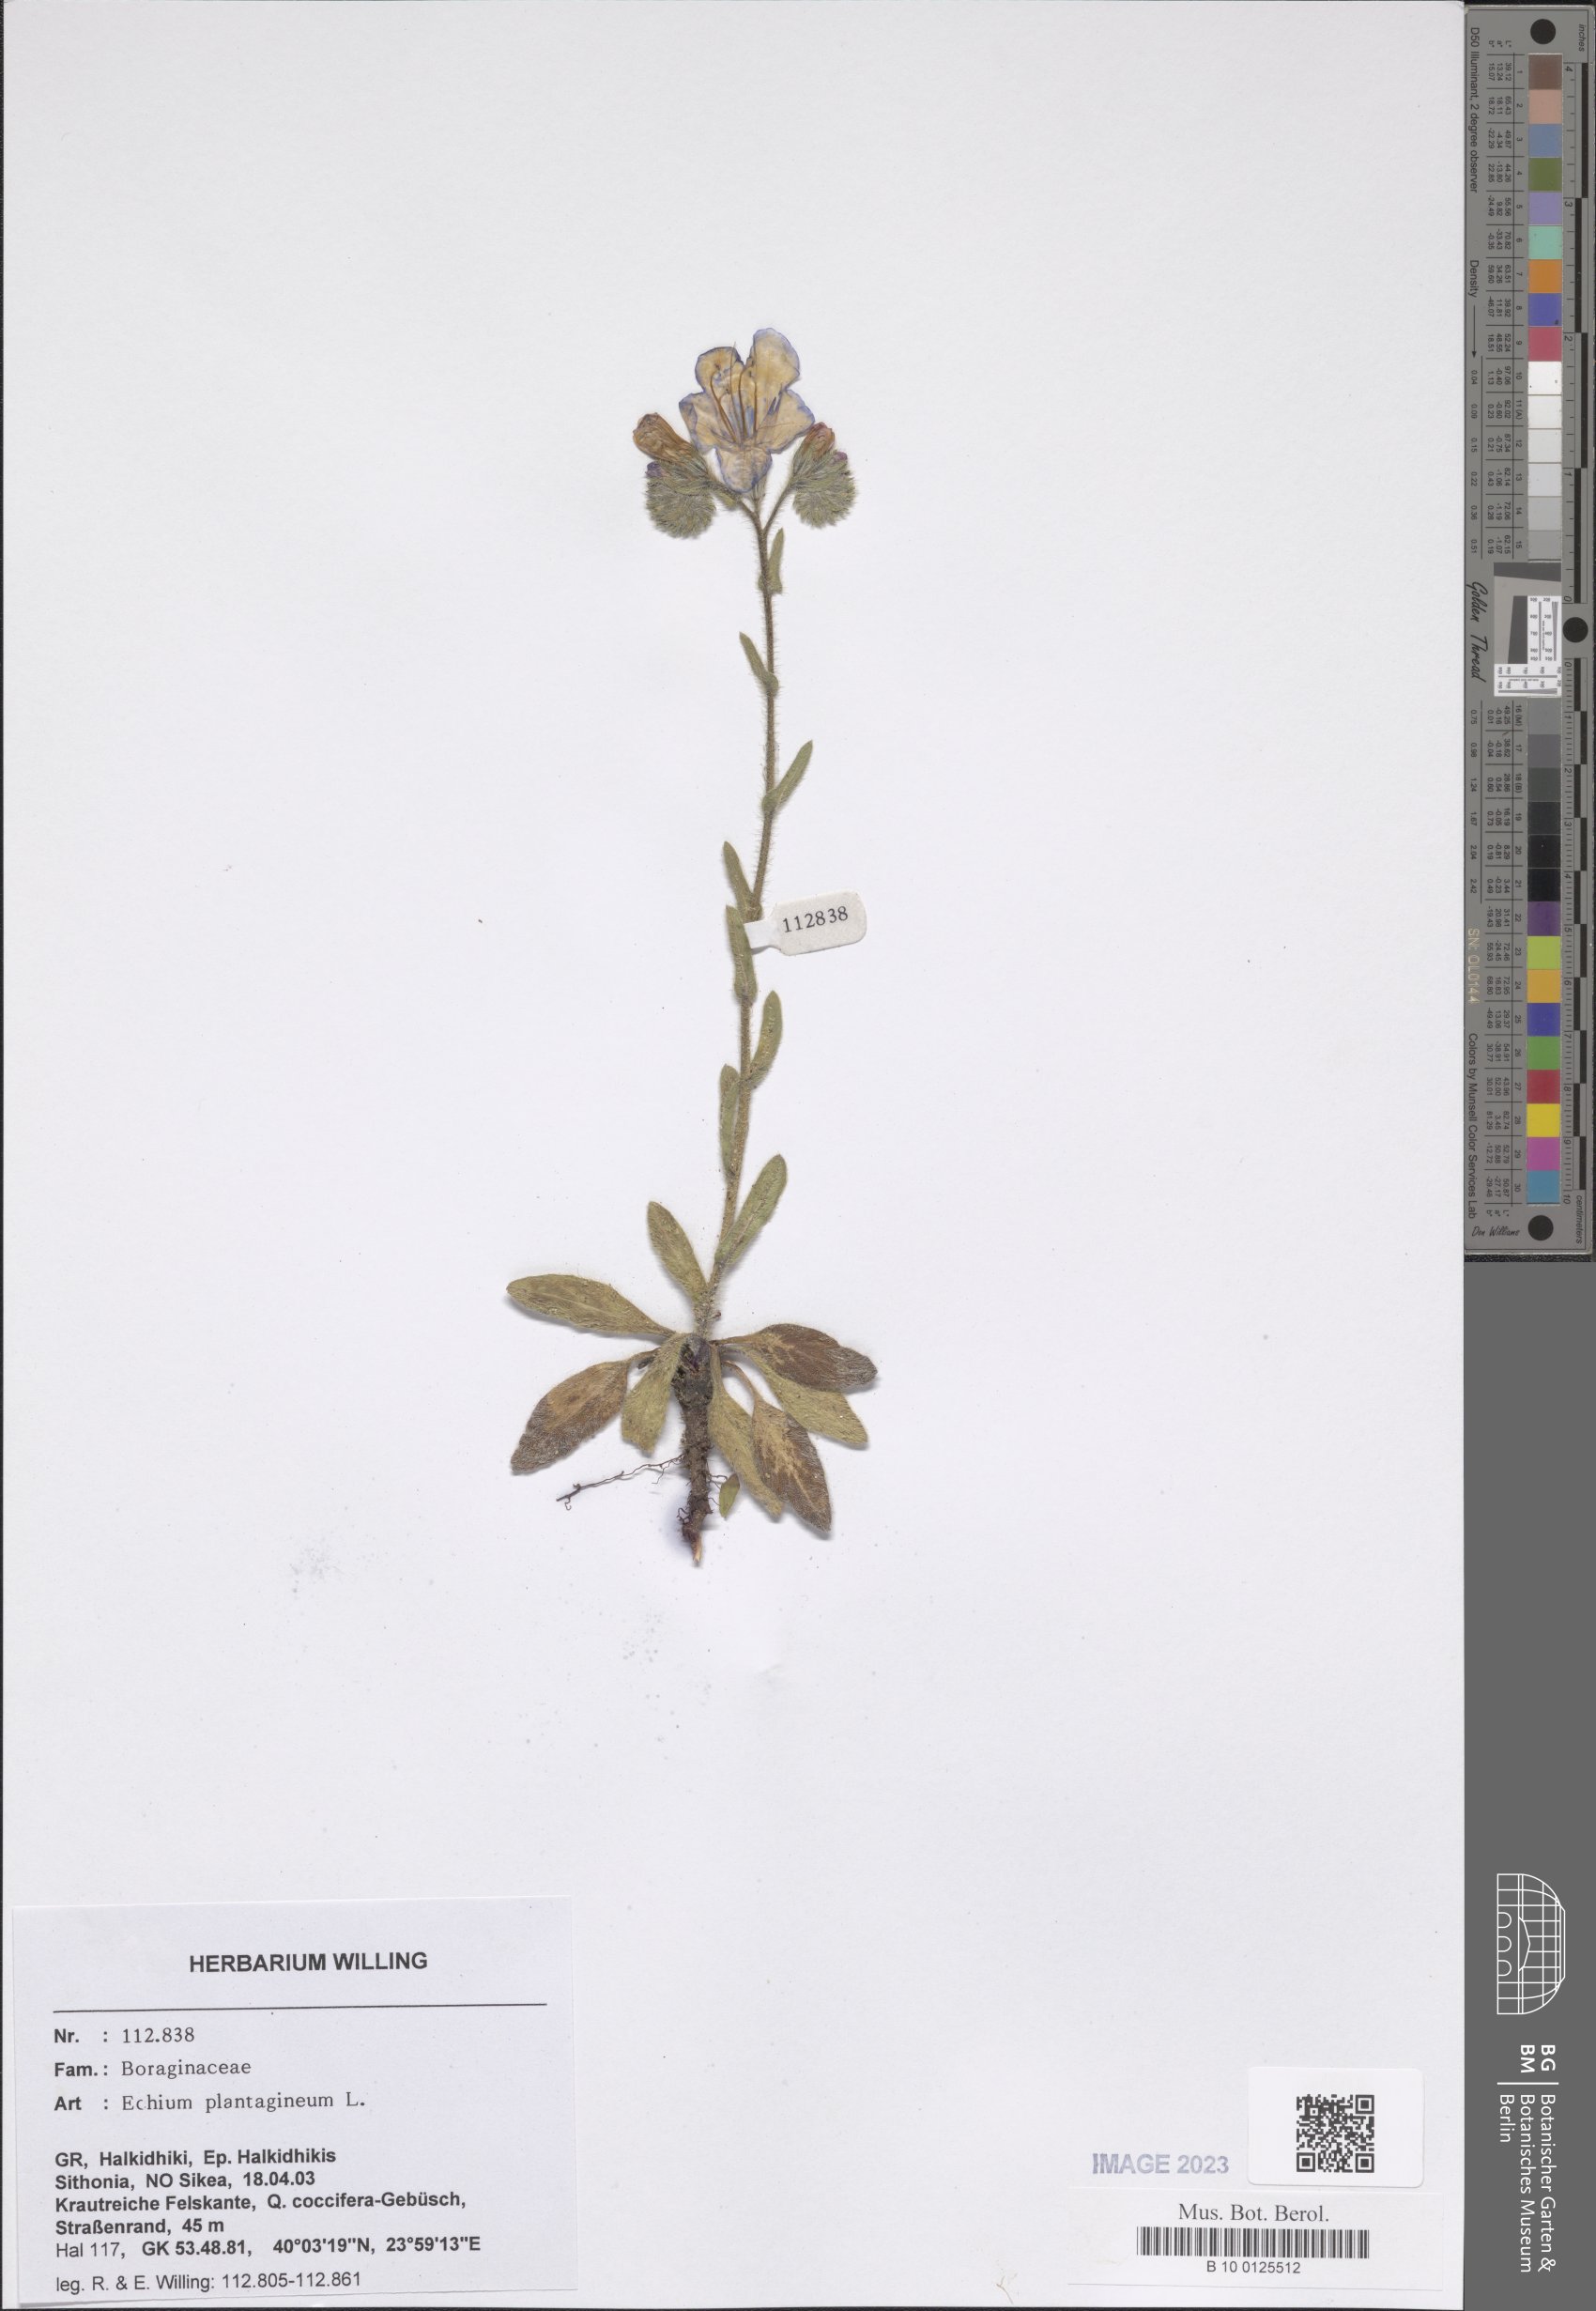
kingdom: Plantae
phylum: Tracheophyta
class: Magnoliopsida
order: Boraginales
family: Boraginaceae
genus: Echium
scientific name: Echium plantagineum
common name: Purple viper's-bugloss
